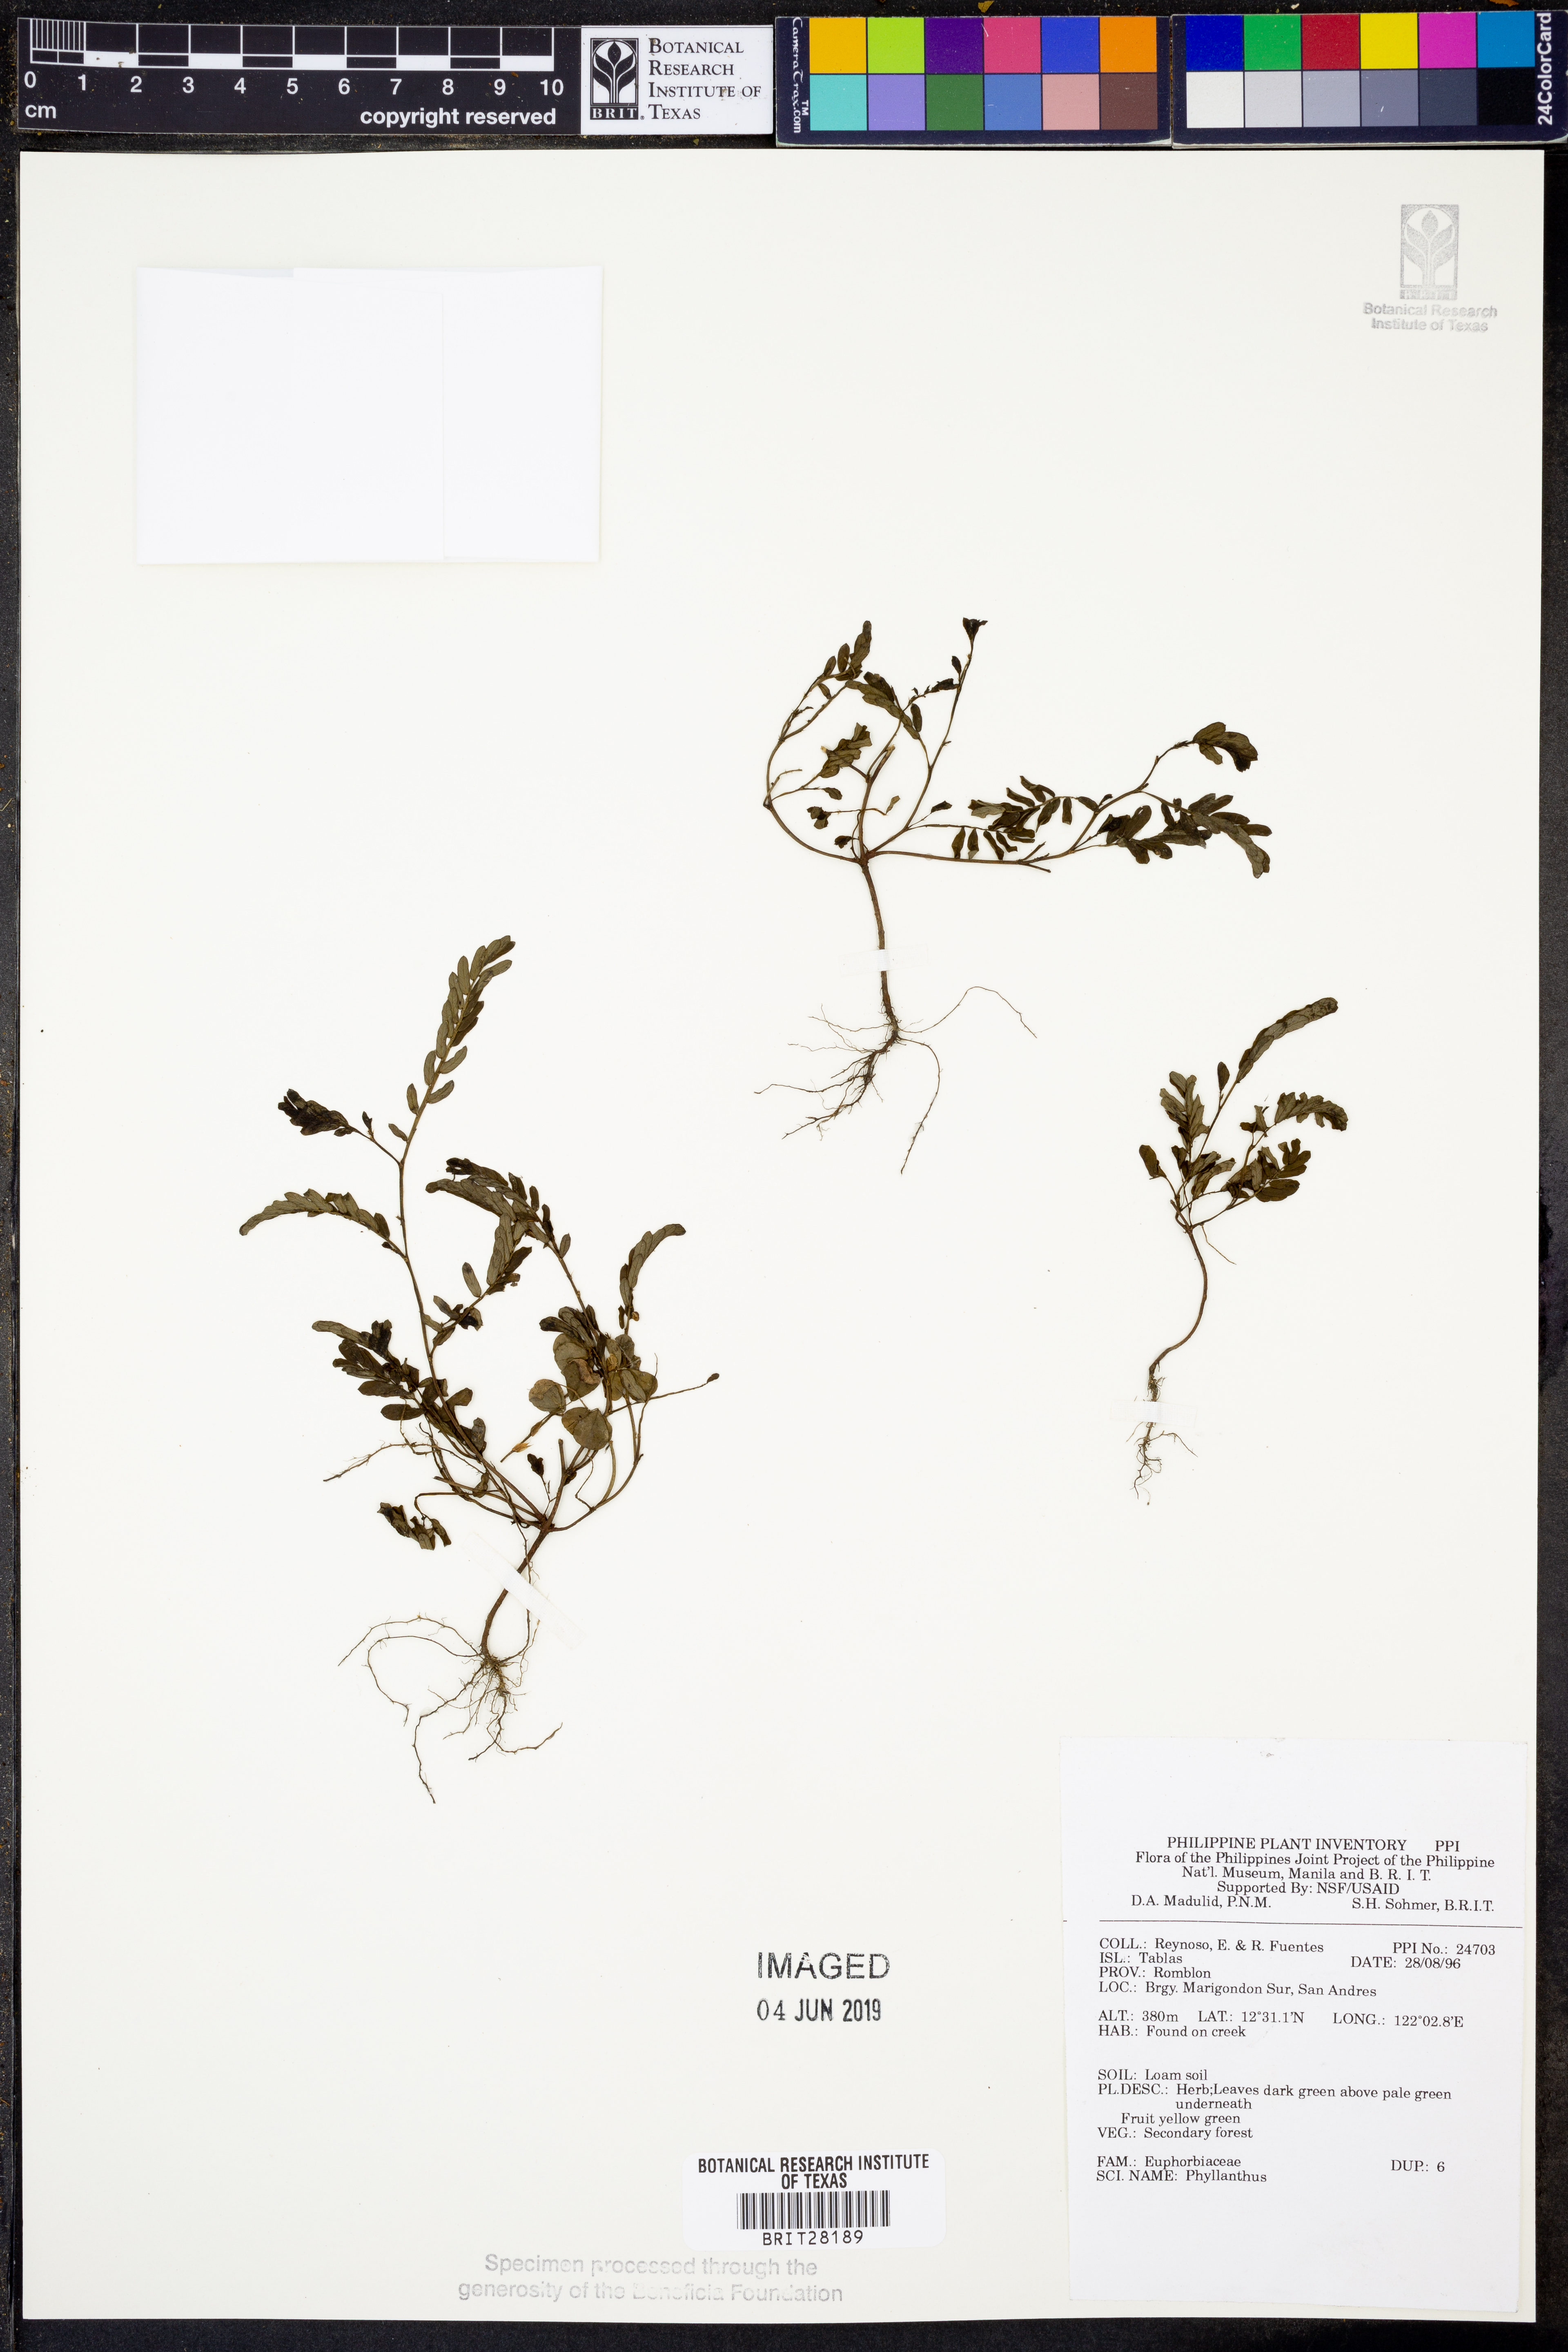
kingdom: Plantae
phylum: Tracheophyta
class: Magnoliopsida
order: Malpighiales
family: Phyllanthaceae
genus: Phyllanthus
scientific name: Phyllanthus
